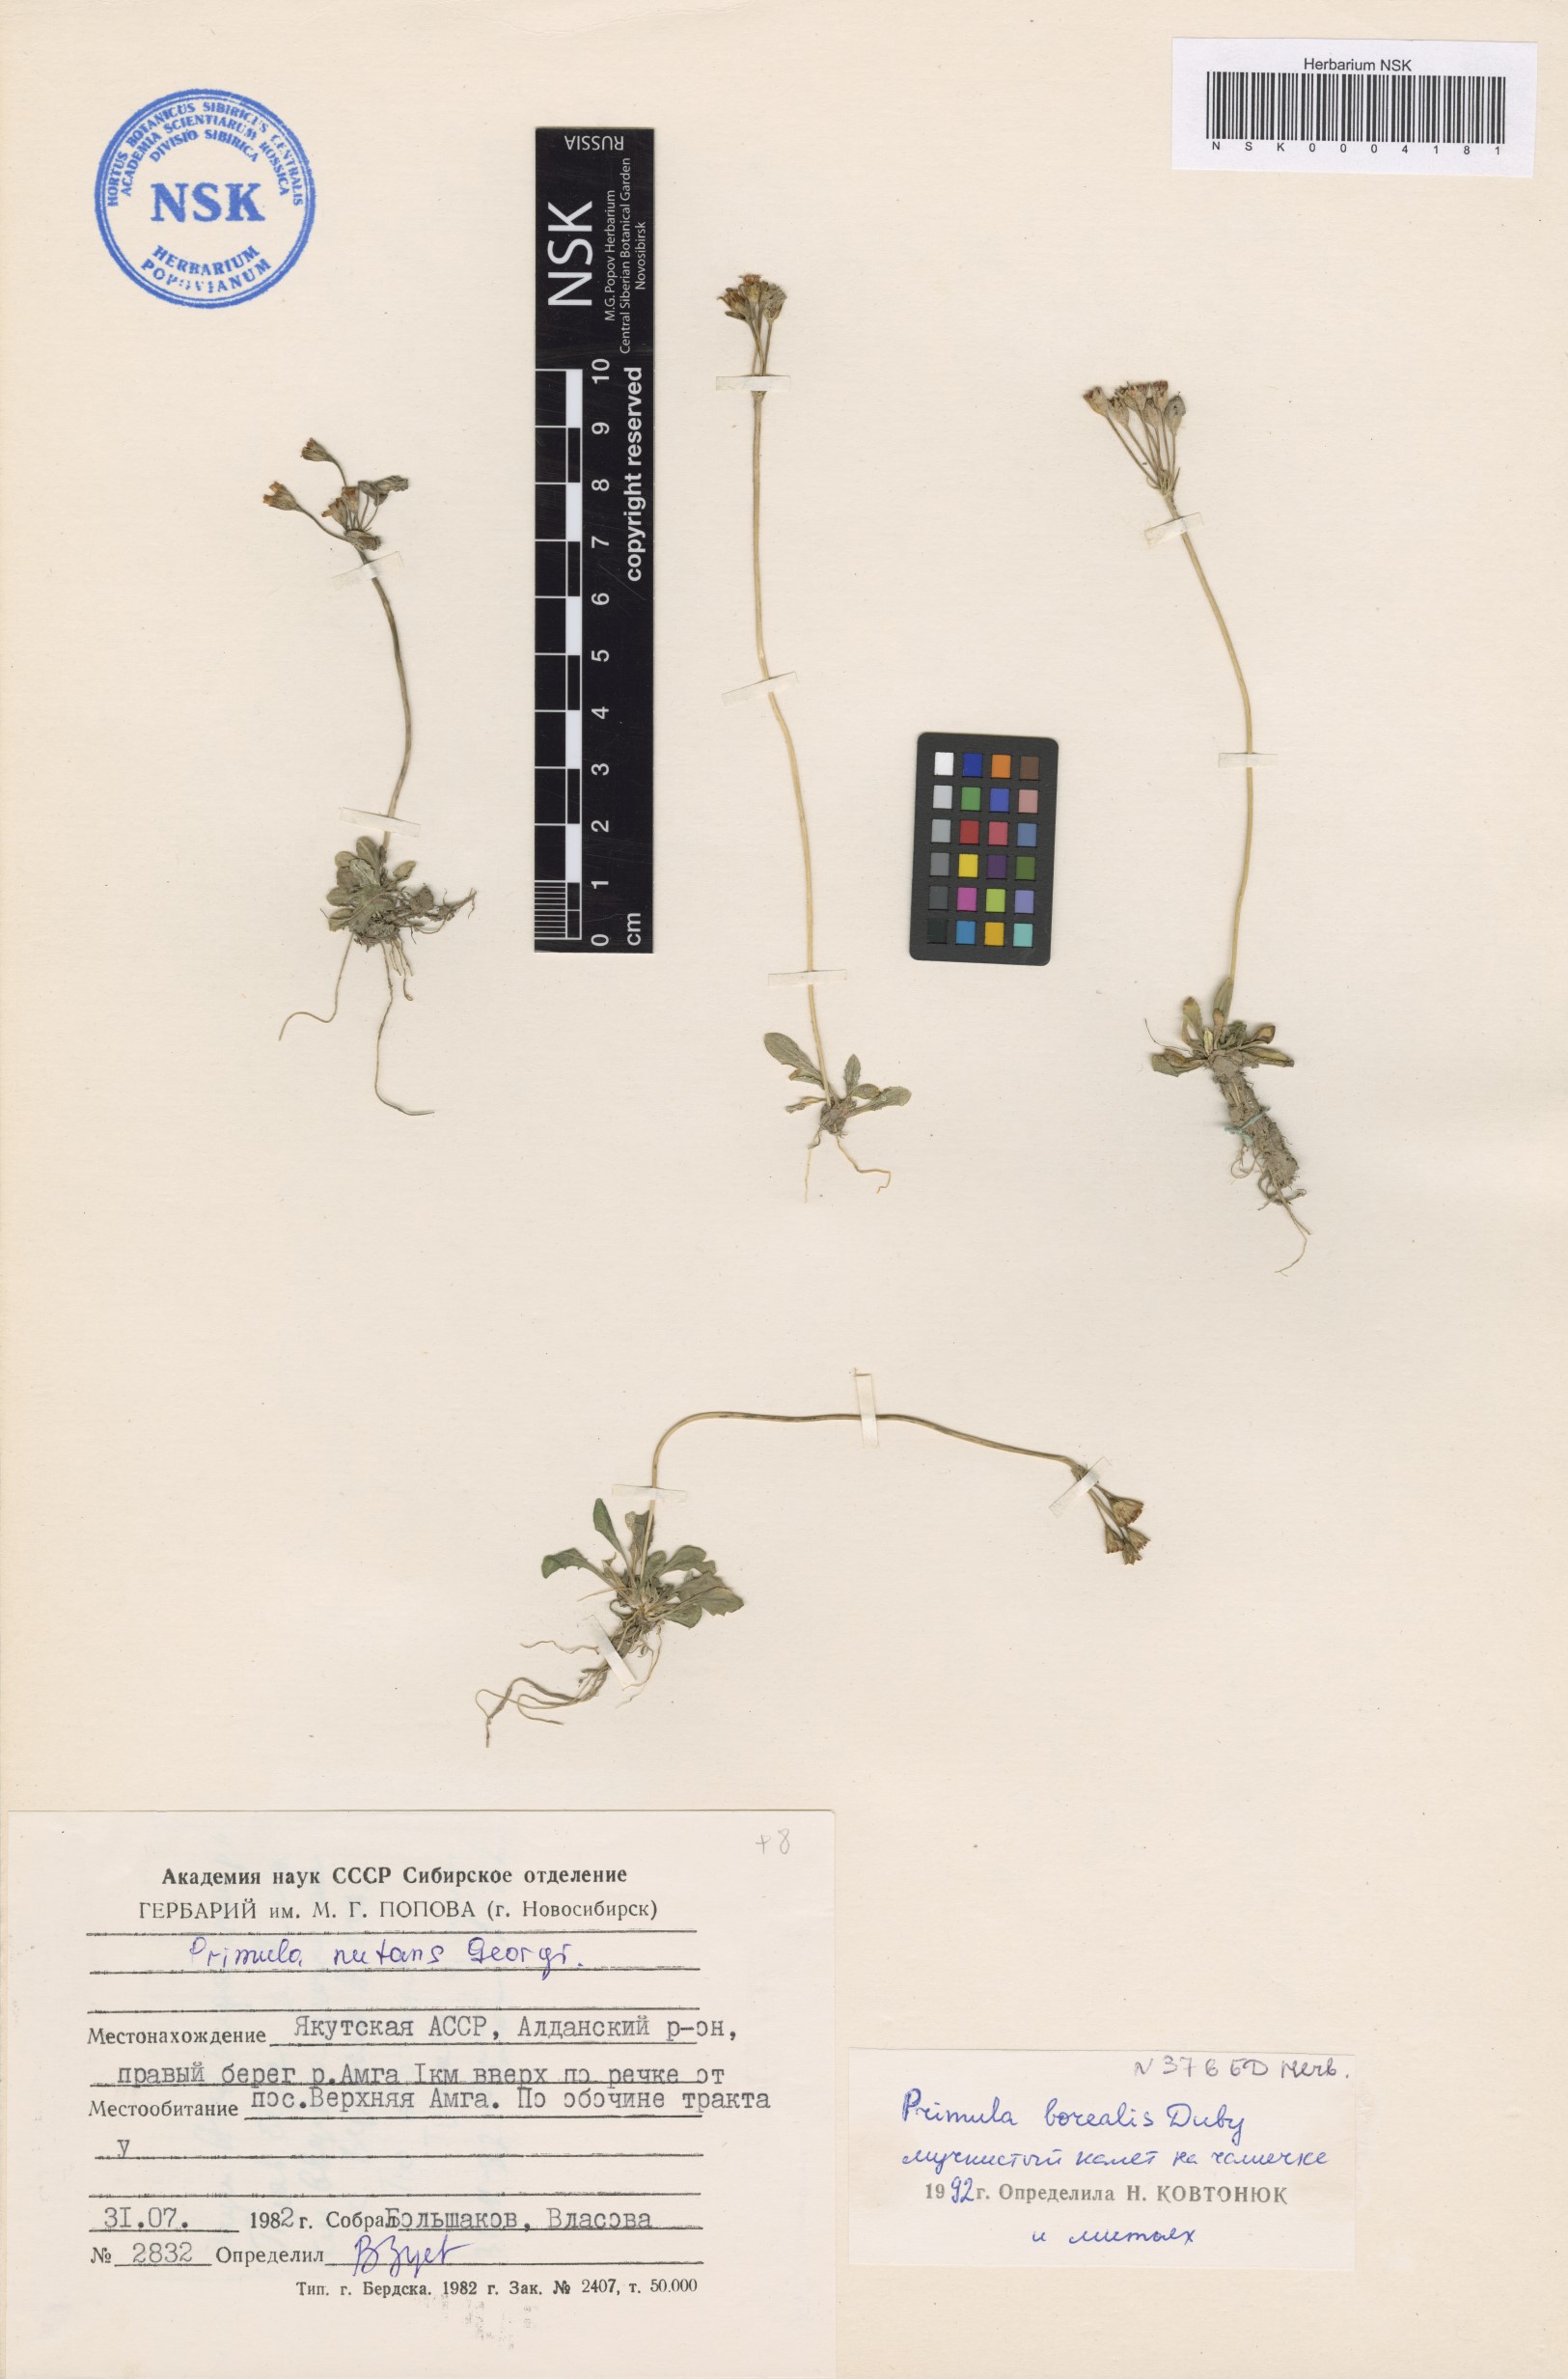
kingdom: Plantae
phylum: Tracheophyta
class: Magnoliopsida
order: Ericales
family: Primulaceae
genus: Primula
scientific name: Primula borealis
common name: Northern primrose
